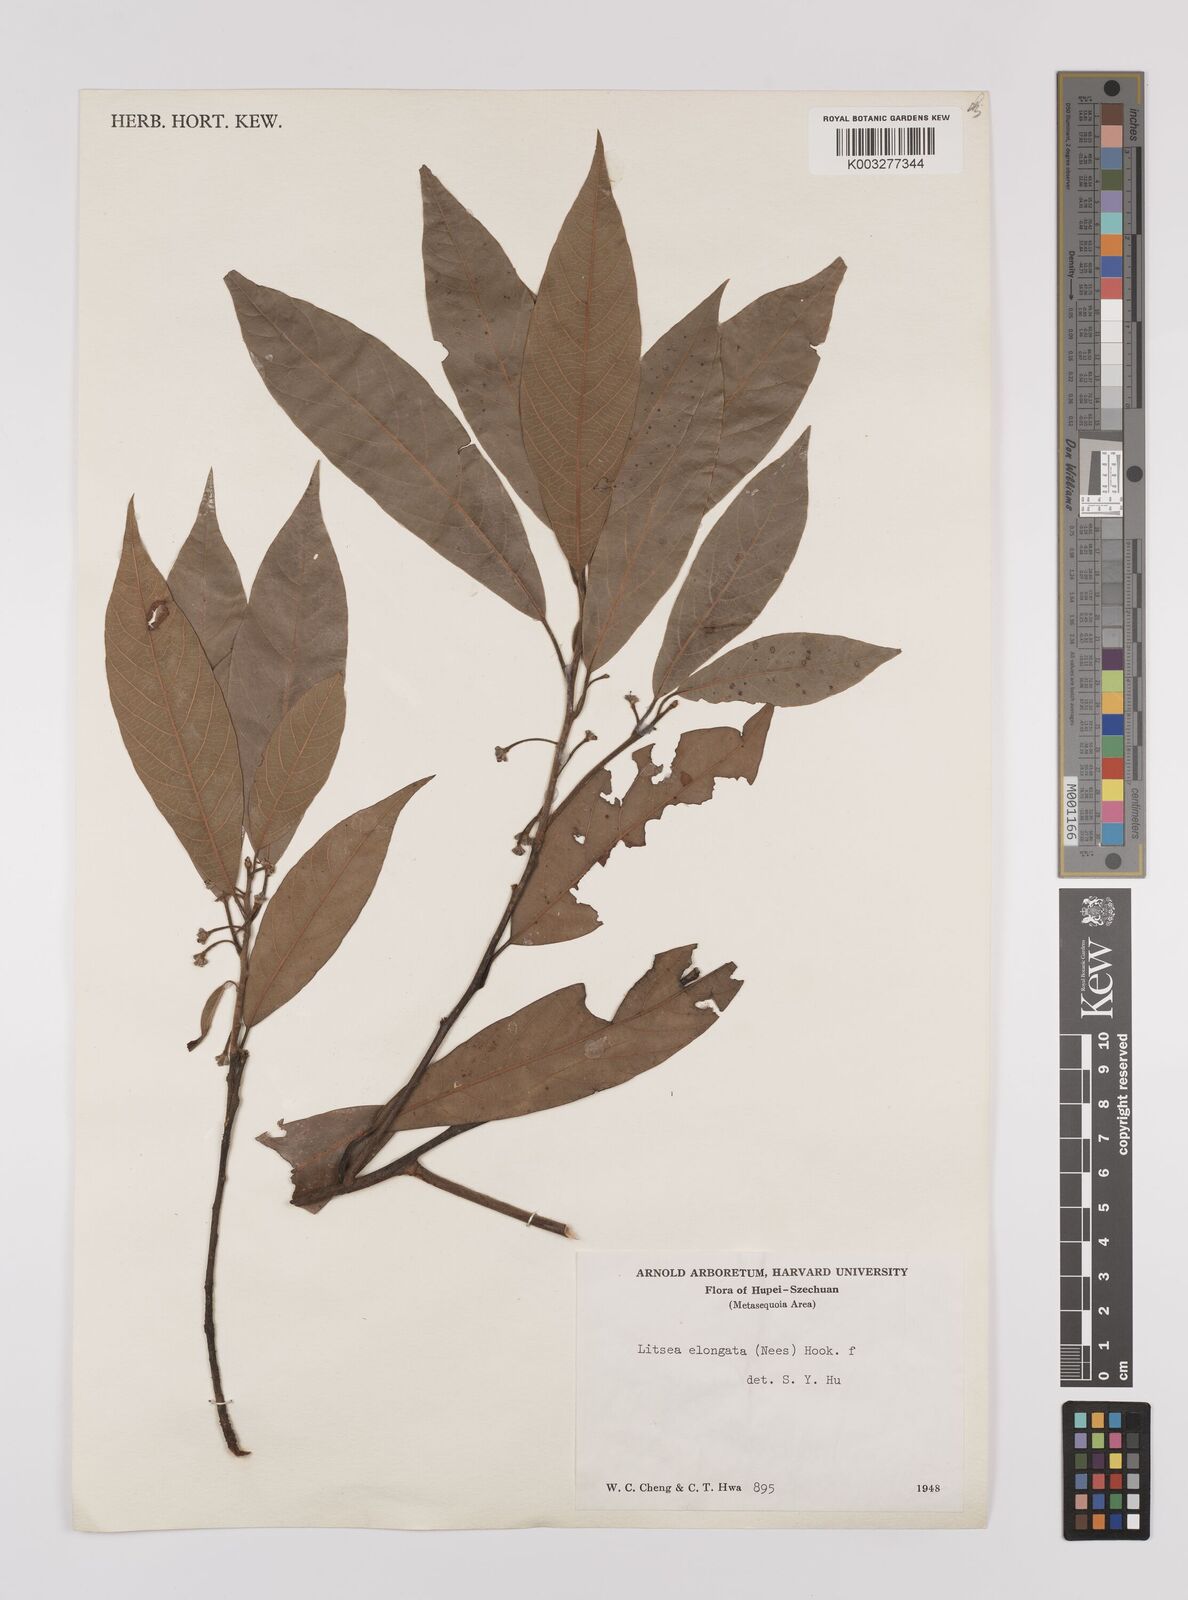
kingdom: Plantae
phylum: Tracheophyta
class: Magnoliopsida
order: Laurales
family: Lauraceae
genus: Litsea
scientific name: Litsea elongata
